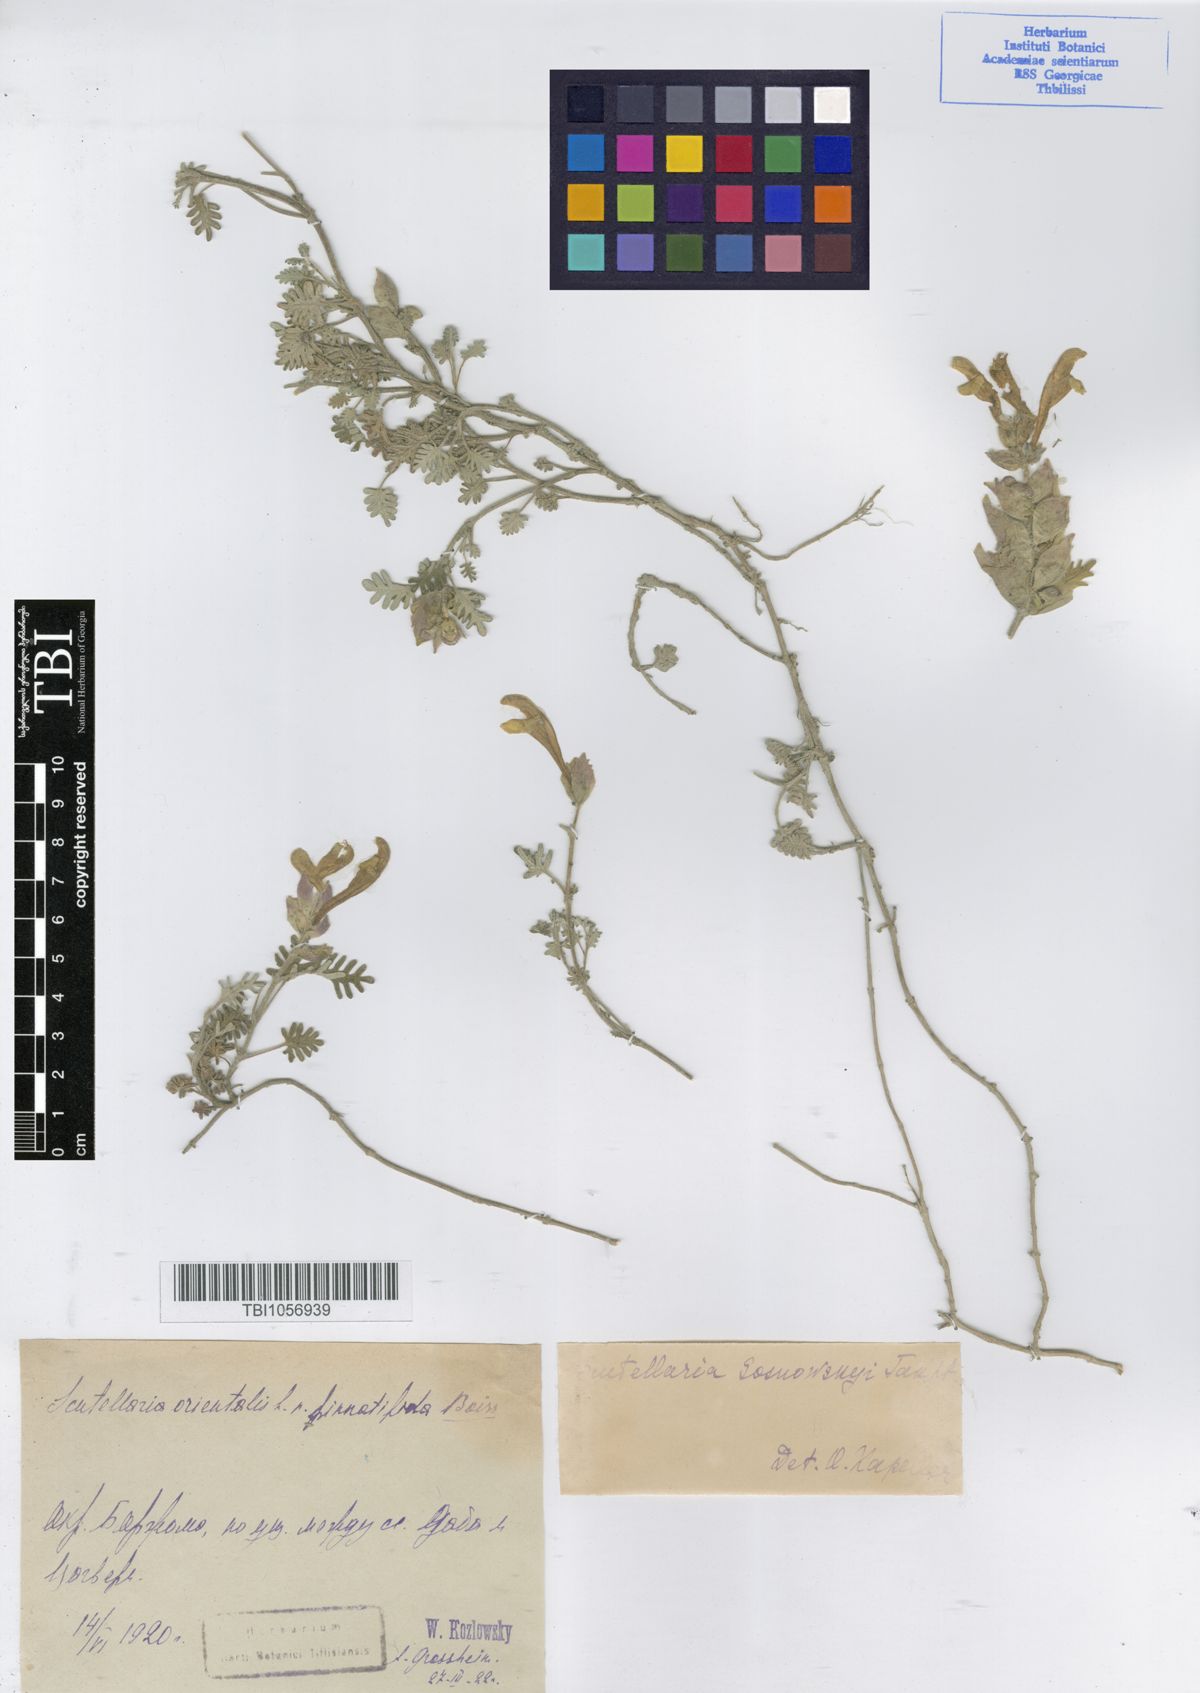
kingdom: Plantae
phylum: Tracheophyta
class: Magnoliopsida
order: Lamiales
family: Lamiaceae
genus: Scutellaria
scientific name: Scutellaria sosnowskyi
